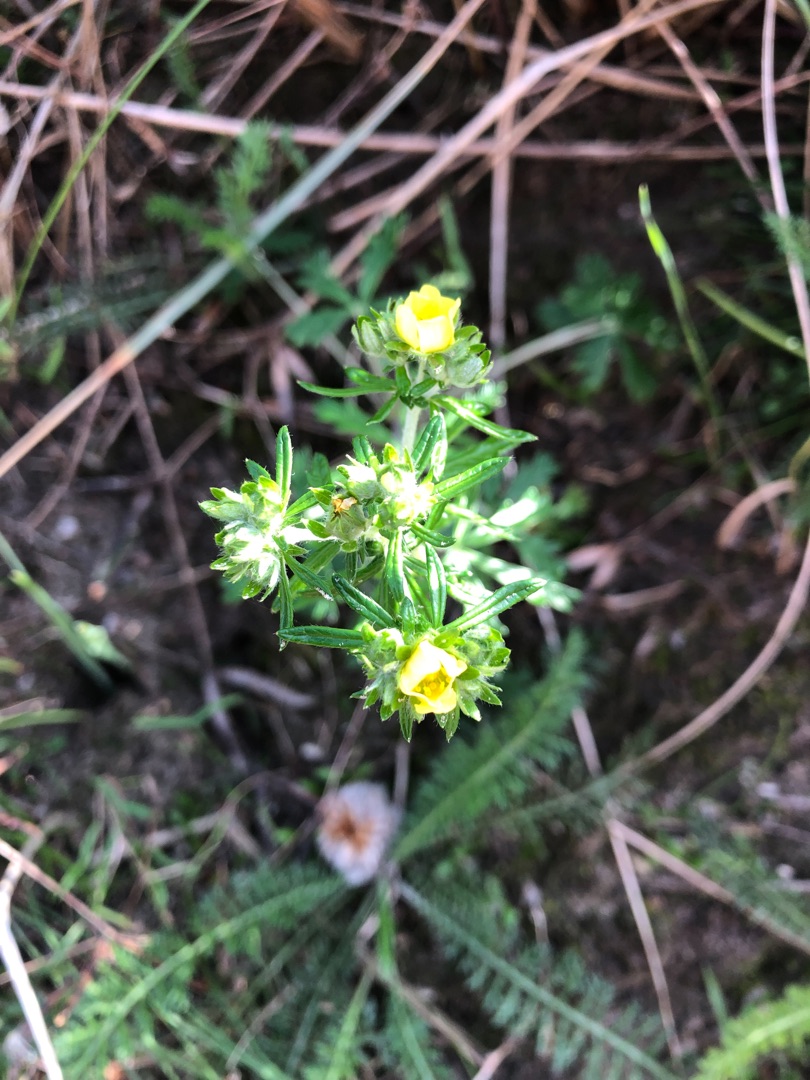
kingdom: Plantae
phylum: Tracheophyta
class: Magnoliopsida
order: Rosales
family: Rosaceae
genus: Potentilla
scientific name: Potentilla argentea
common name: Sølv-potentil
